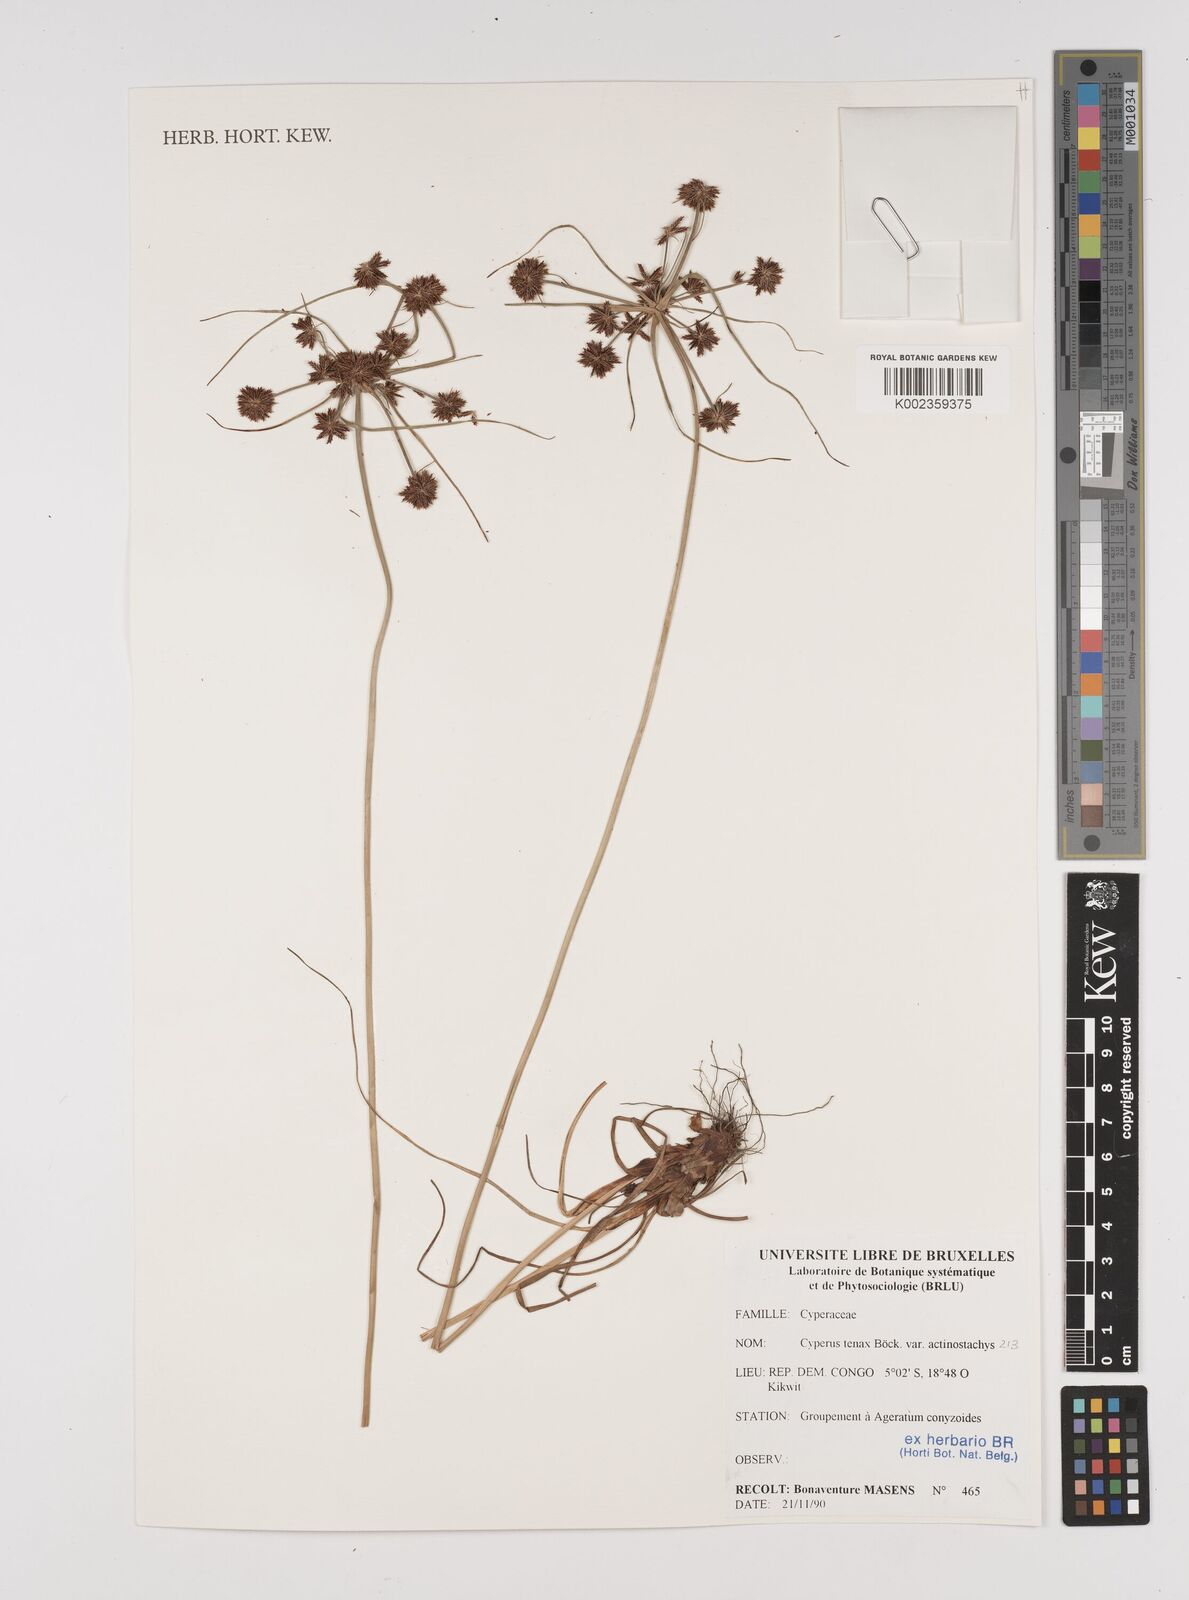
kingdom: Plantae
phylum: Tracheophyta
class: Liliopsida
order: Poales
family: Cyperaceae
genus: Cyperus
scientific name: Cyperus tenax
